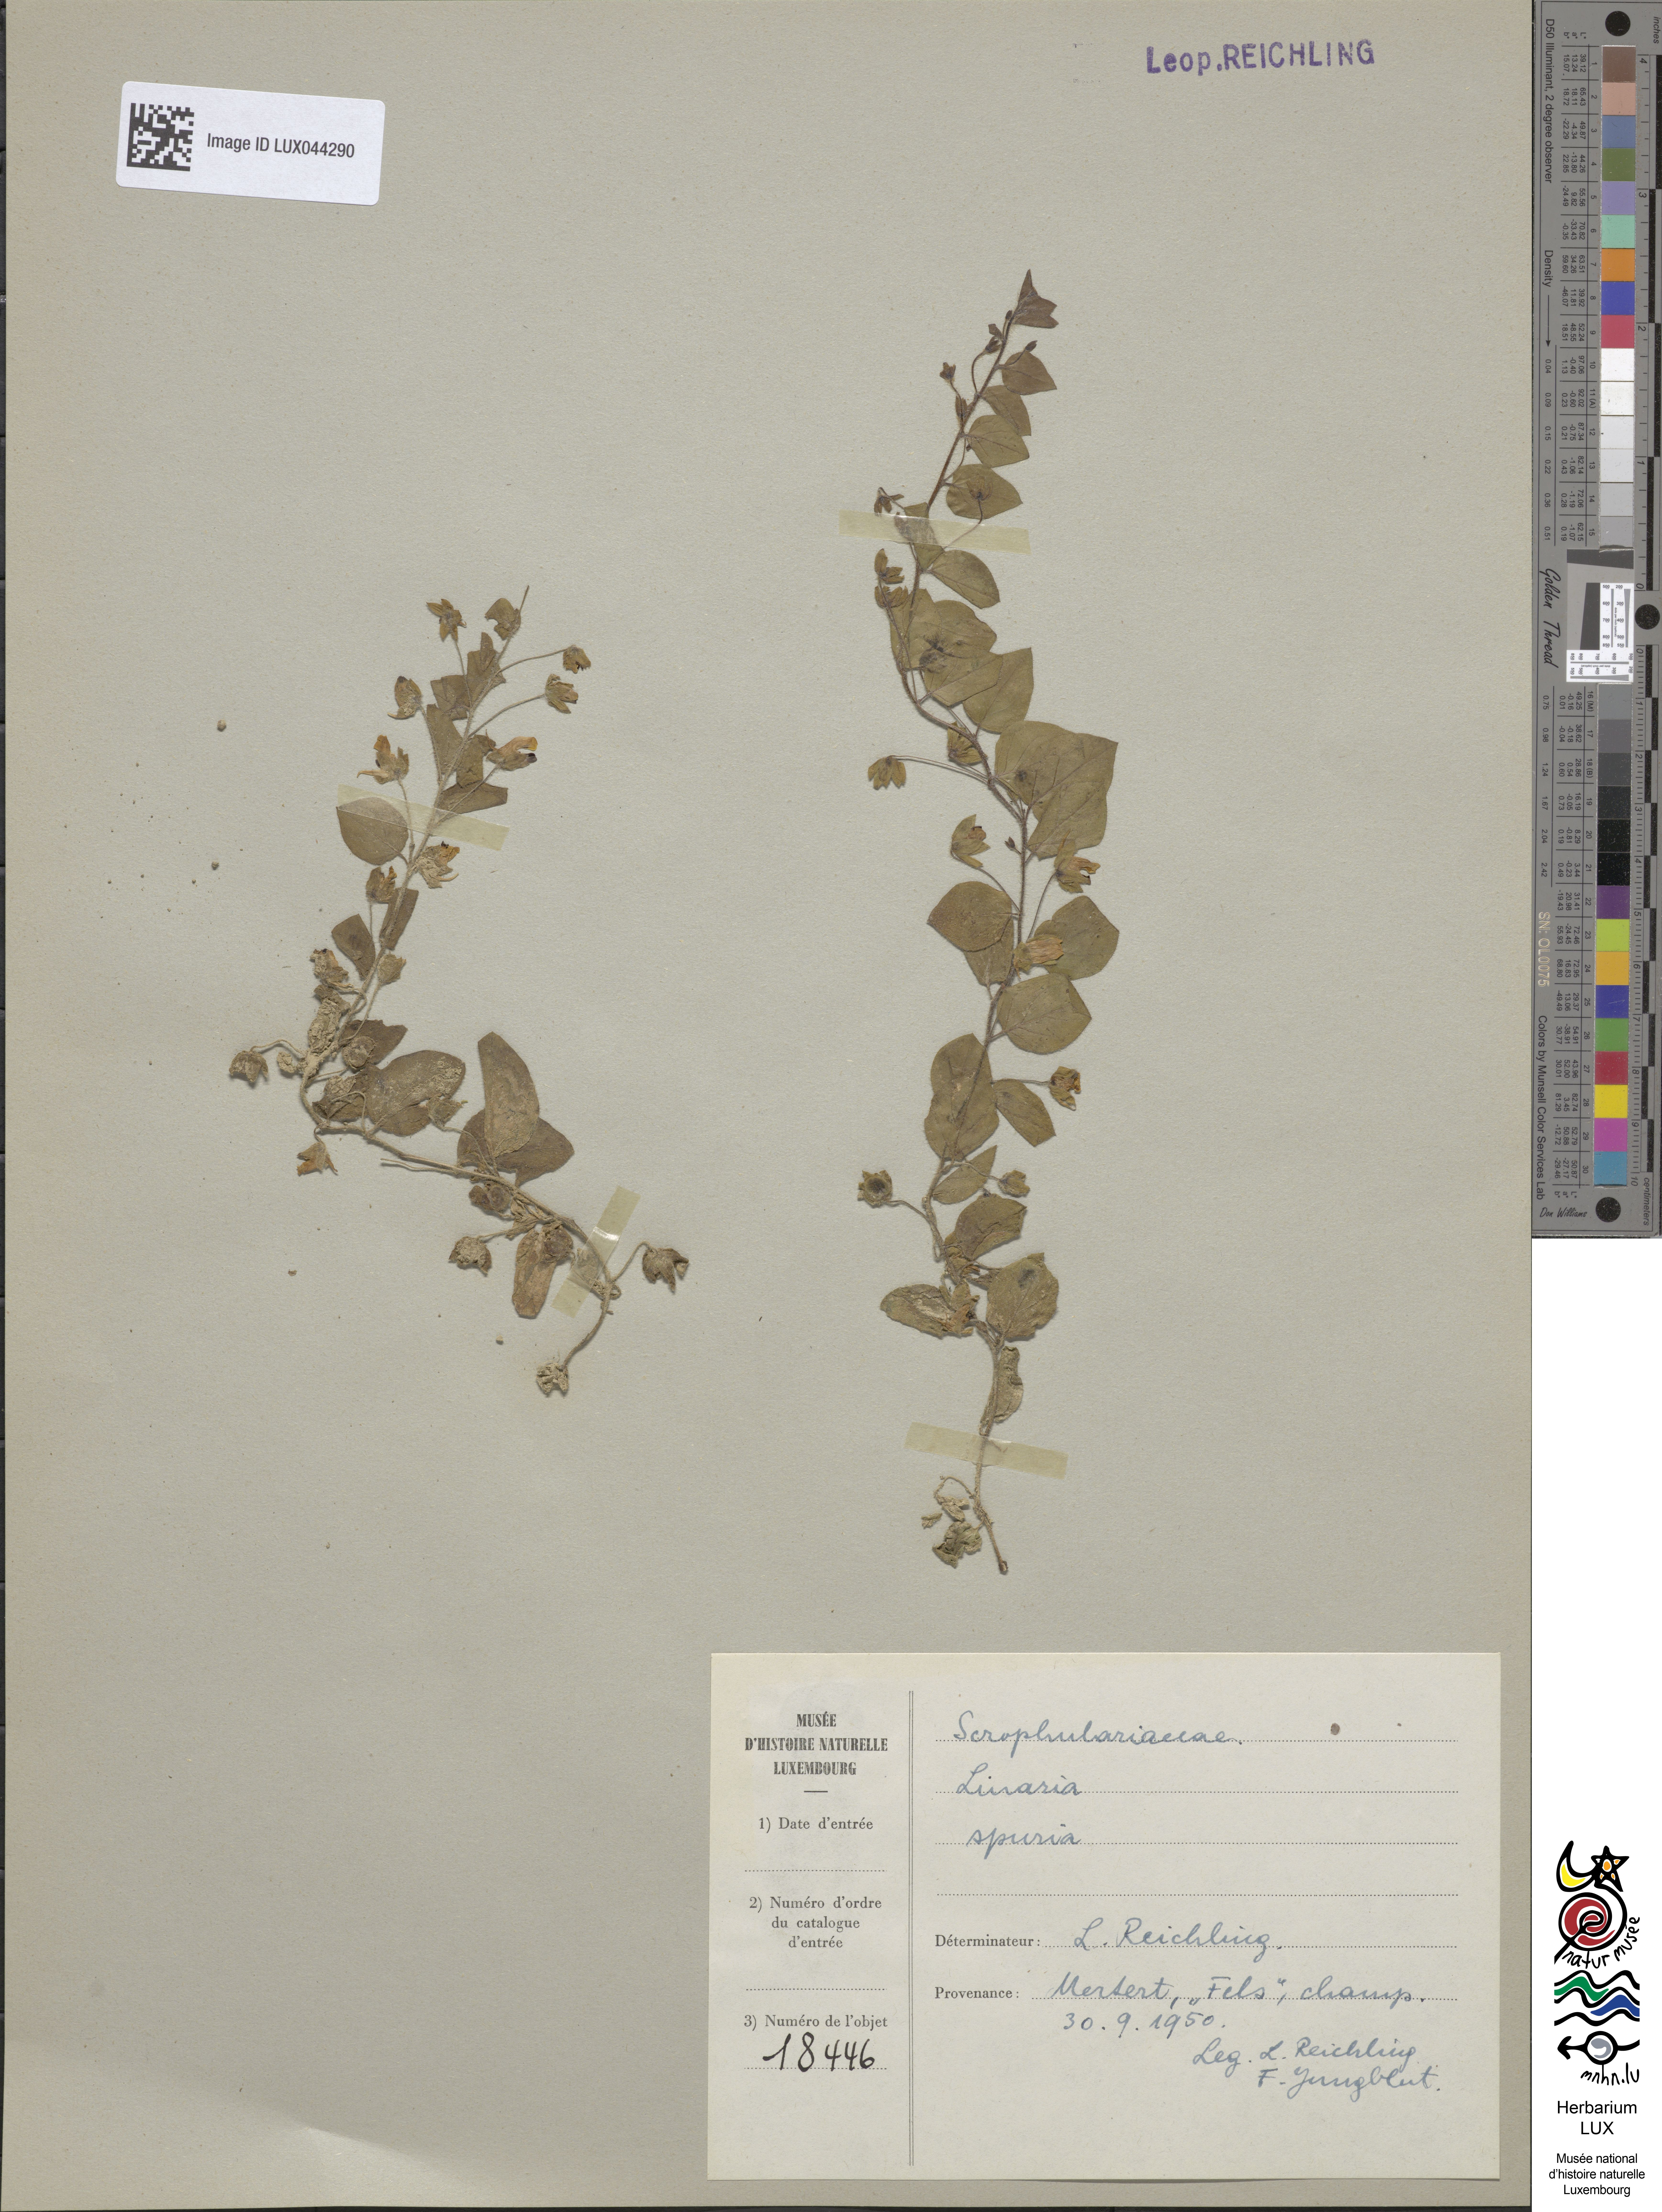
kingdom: Plantae
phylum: Tracheophyta
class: Magnoliopsida
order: Lamiales
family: Plantaginaceae
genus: Kickxia
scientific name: Kickxia spuria
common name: Round-leaved fluellen
